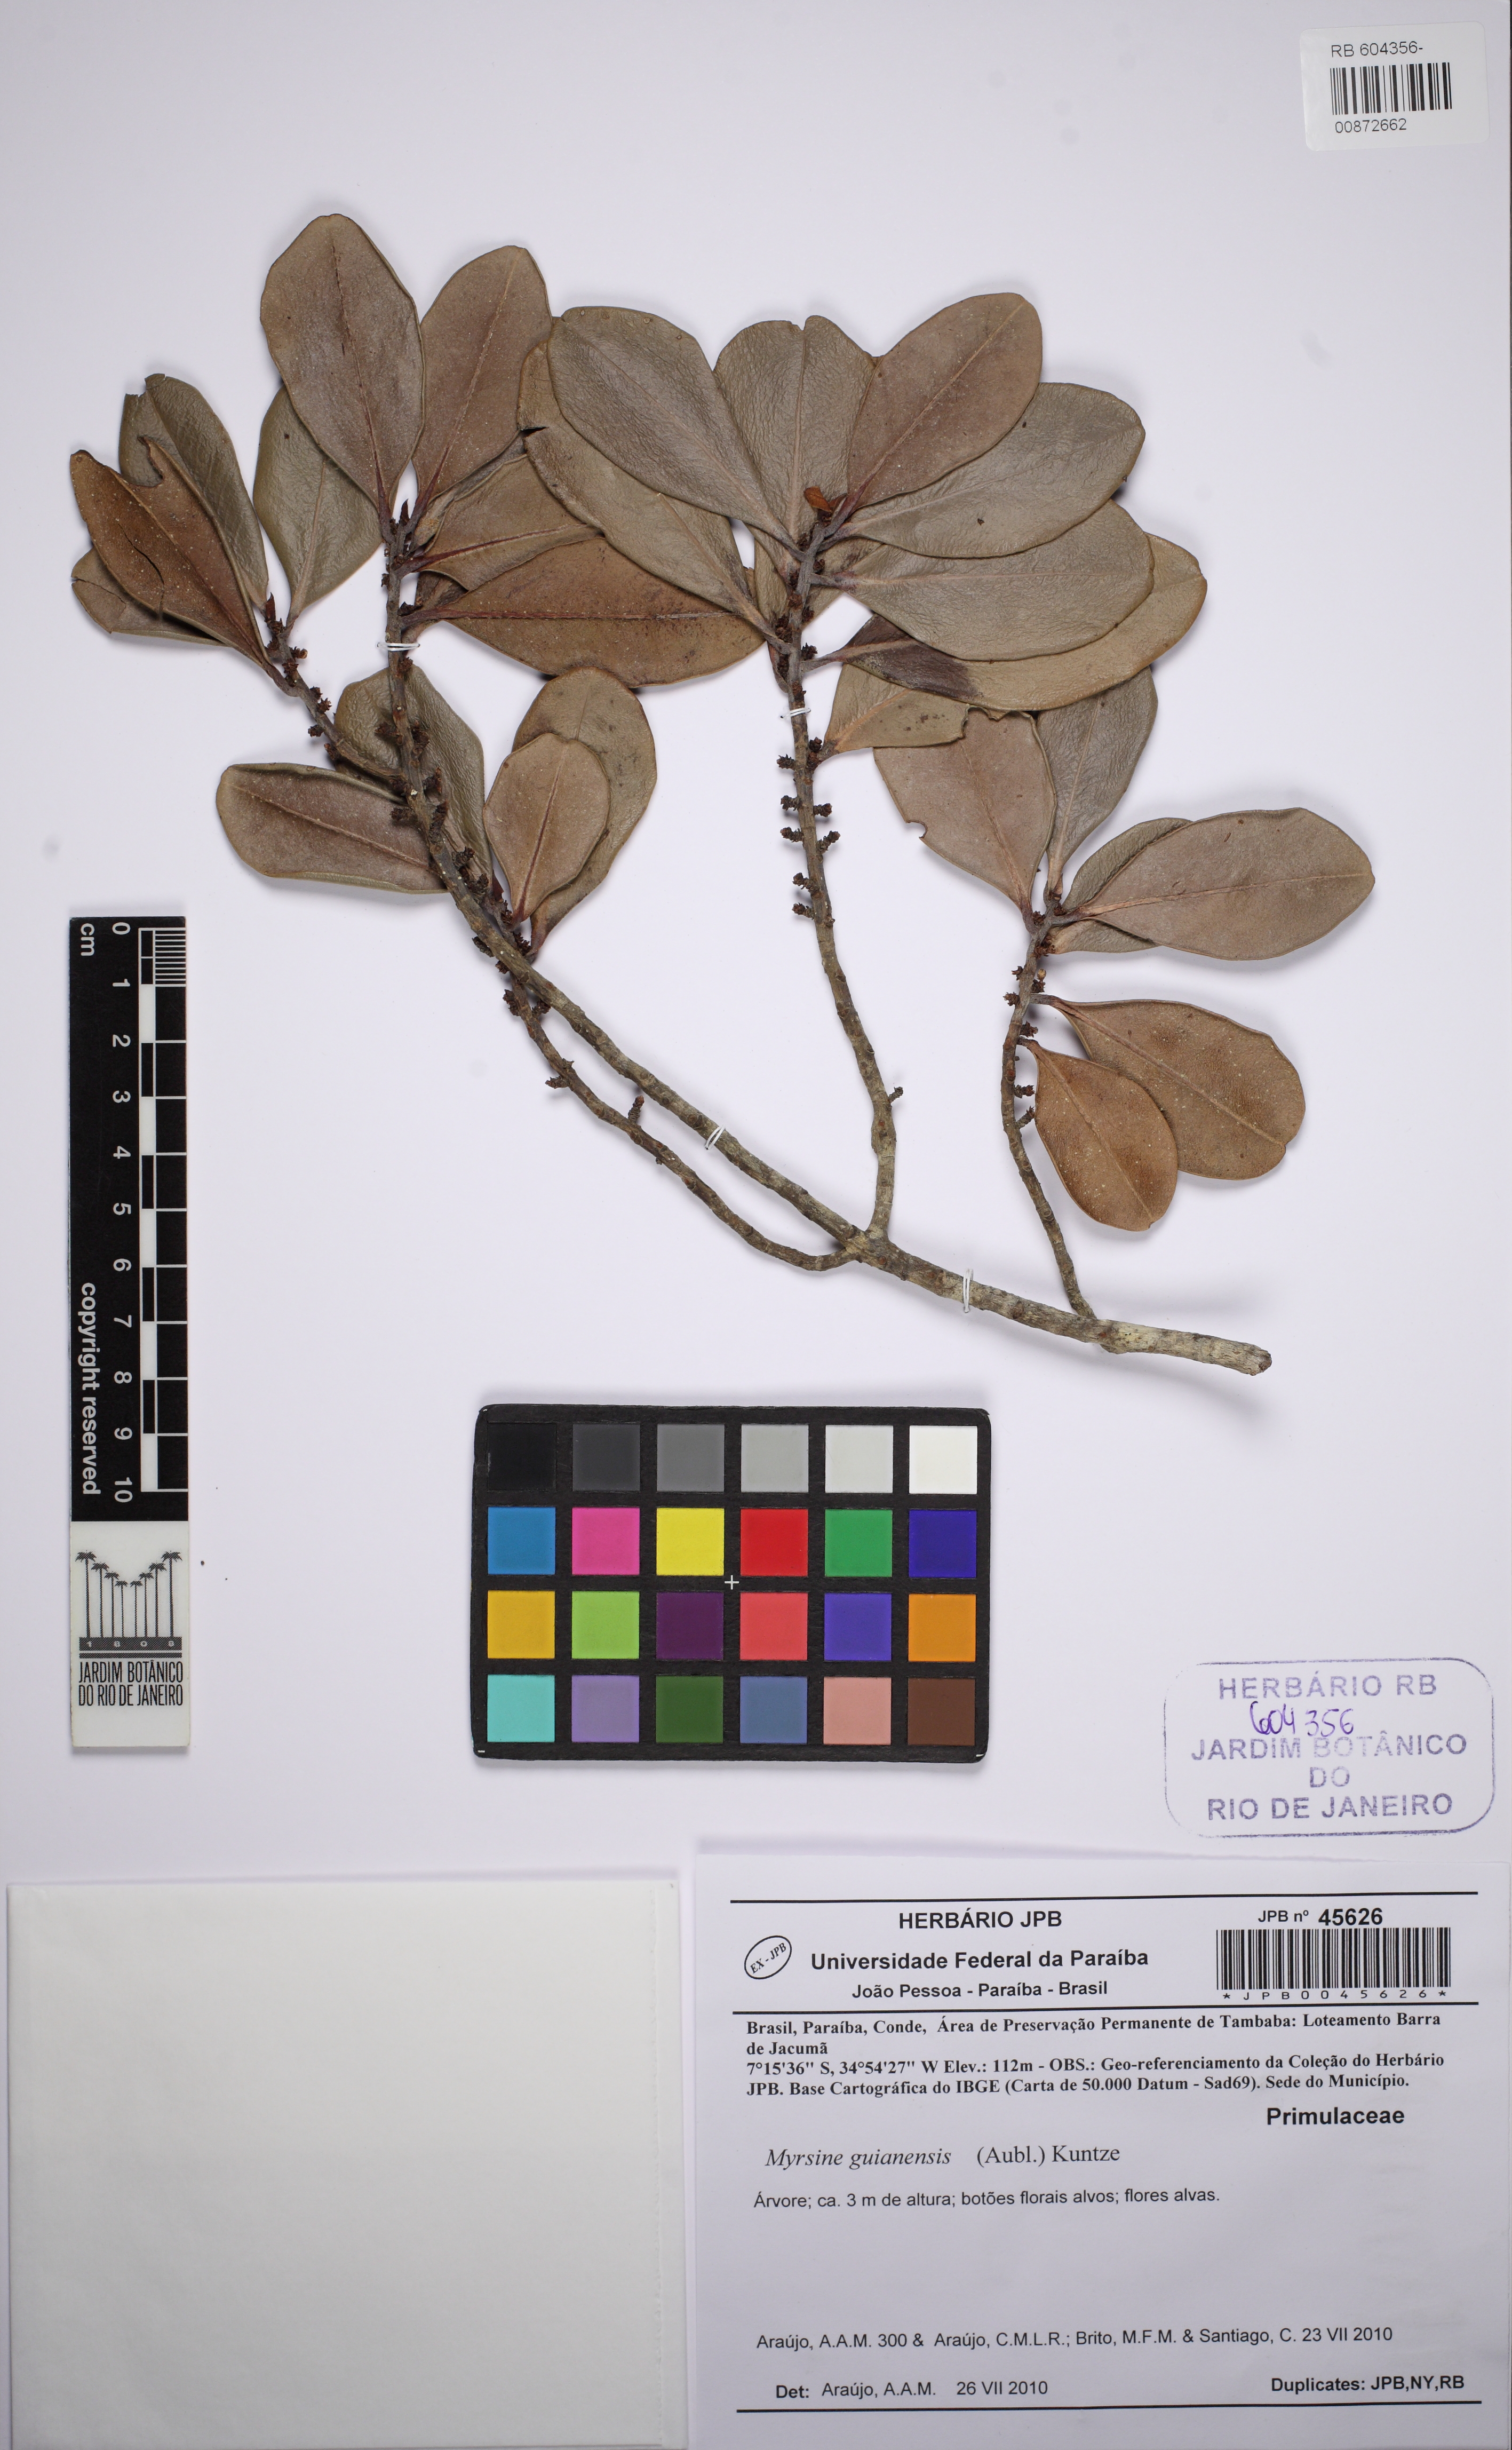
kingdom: Plantae
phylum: Tracheophyta
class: Magnoliopsida
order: Ericales
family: Primulaceae
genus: Myrsine
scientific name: Myrsine guianensis
